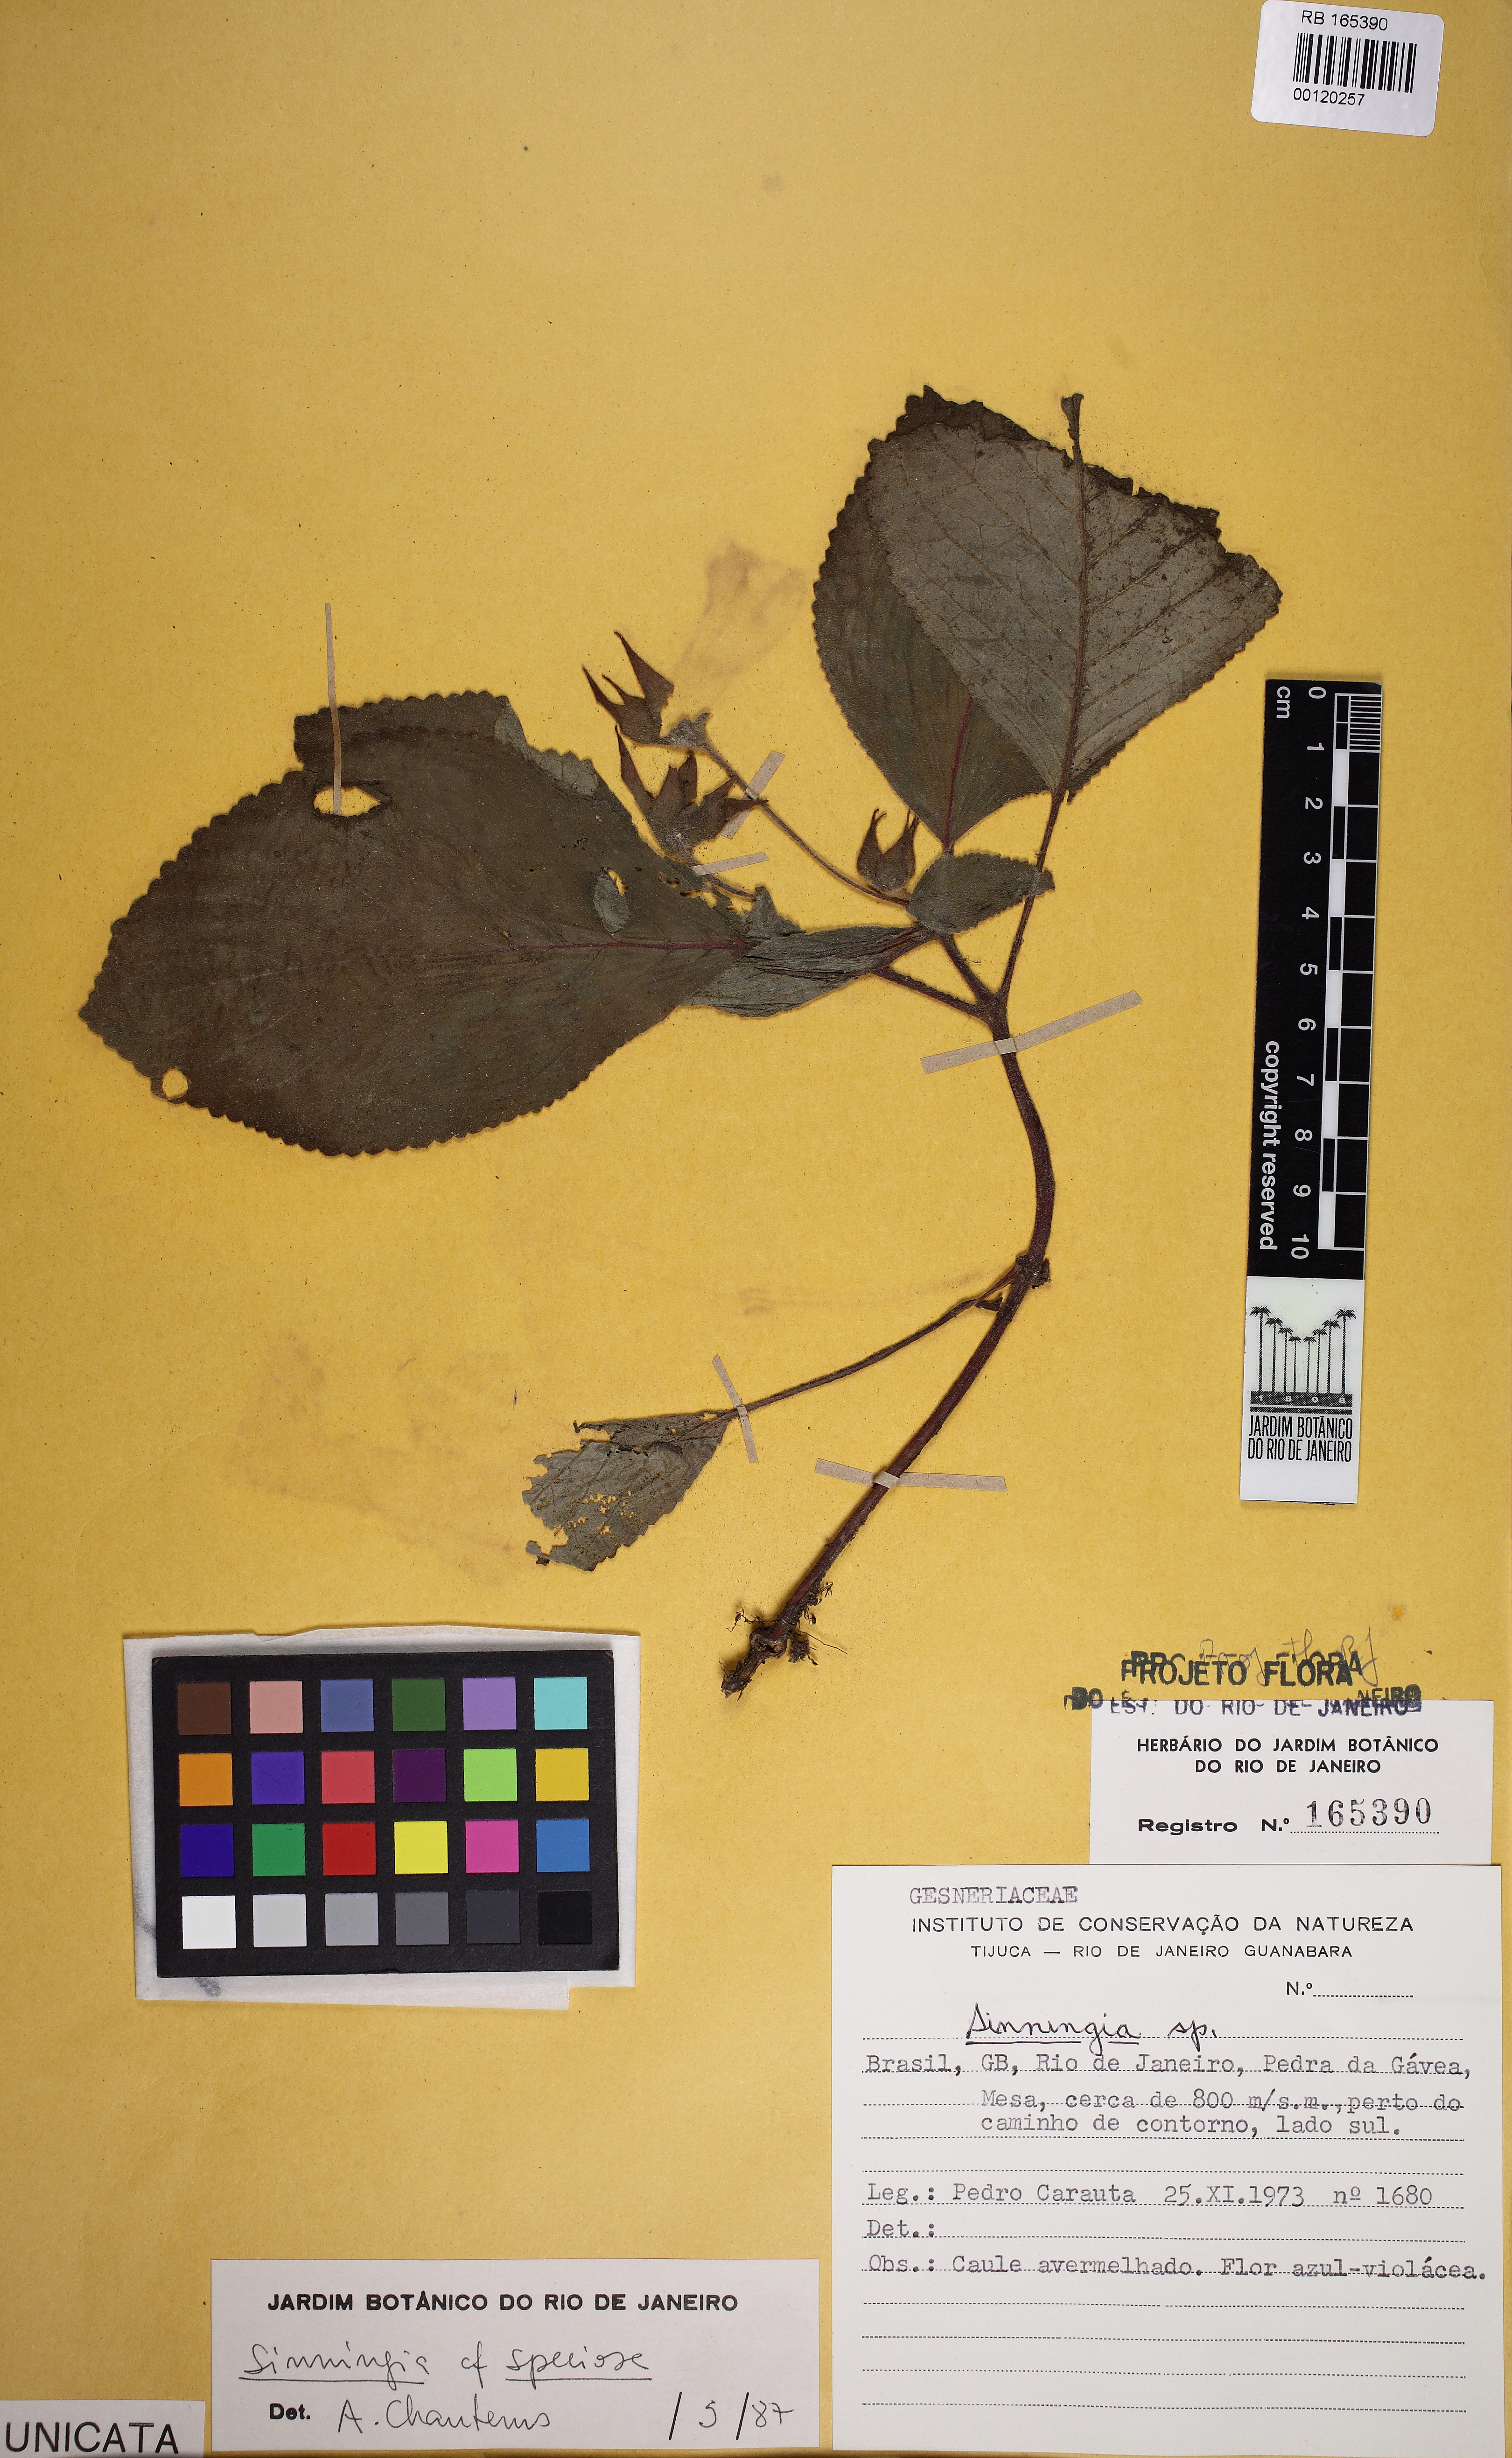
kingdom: Plantae
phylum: Tracheophyta
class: Magnoliopsida
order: Lamiales
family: Gesneriaceae
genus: Sinningia
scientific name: Sinningia
